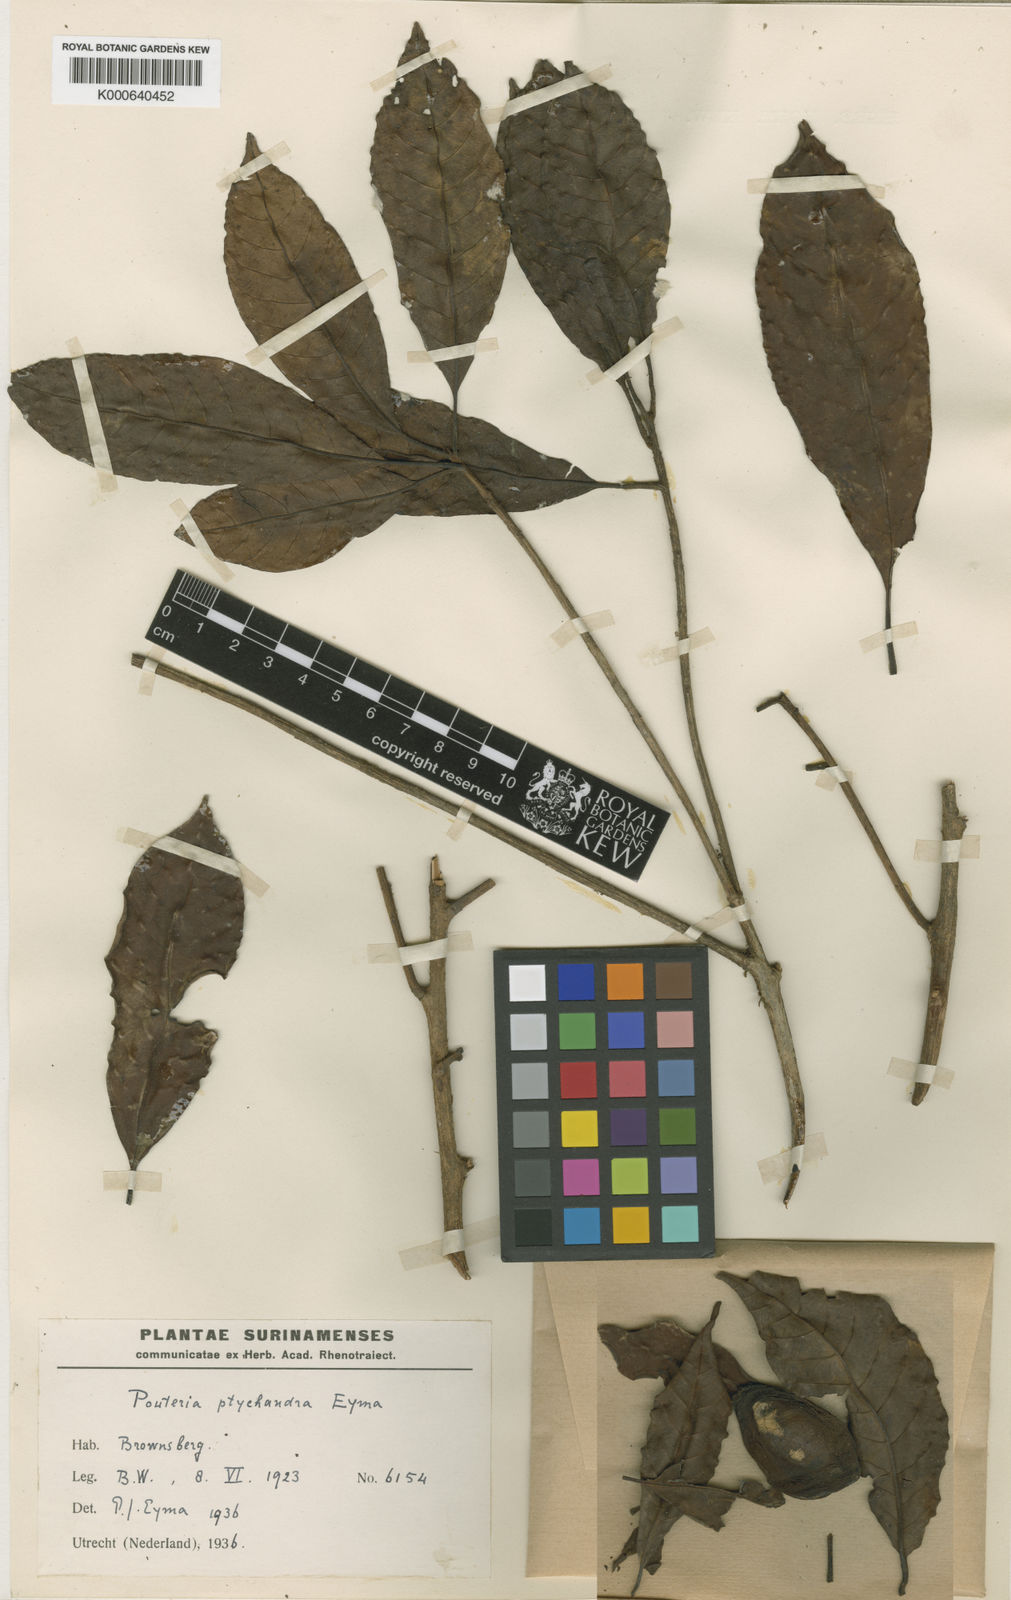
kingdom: Plantae
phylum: Tracheophyta
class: Magnoliopsida
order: Ericales
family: Sapotaceae
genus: Pradosia
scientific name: Pradosia ptychandra
